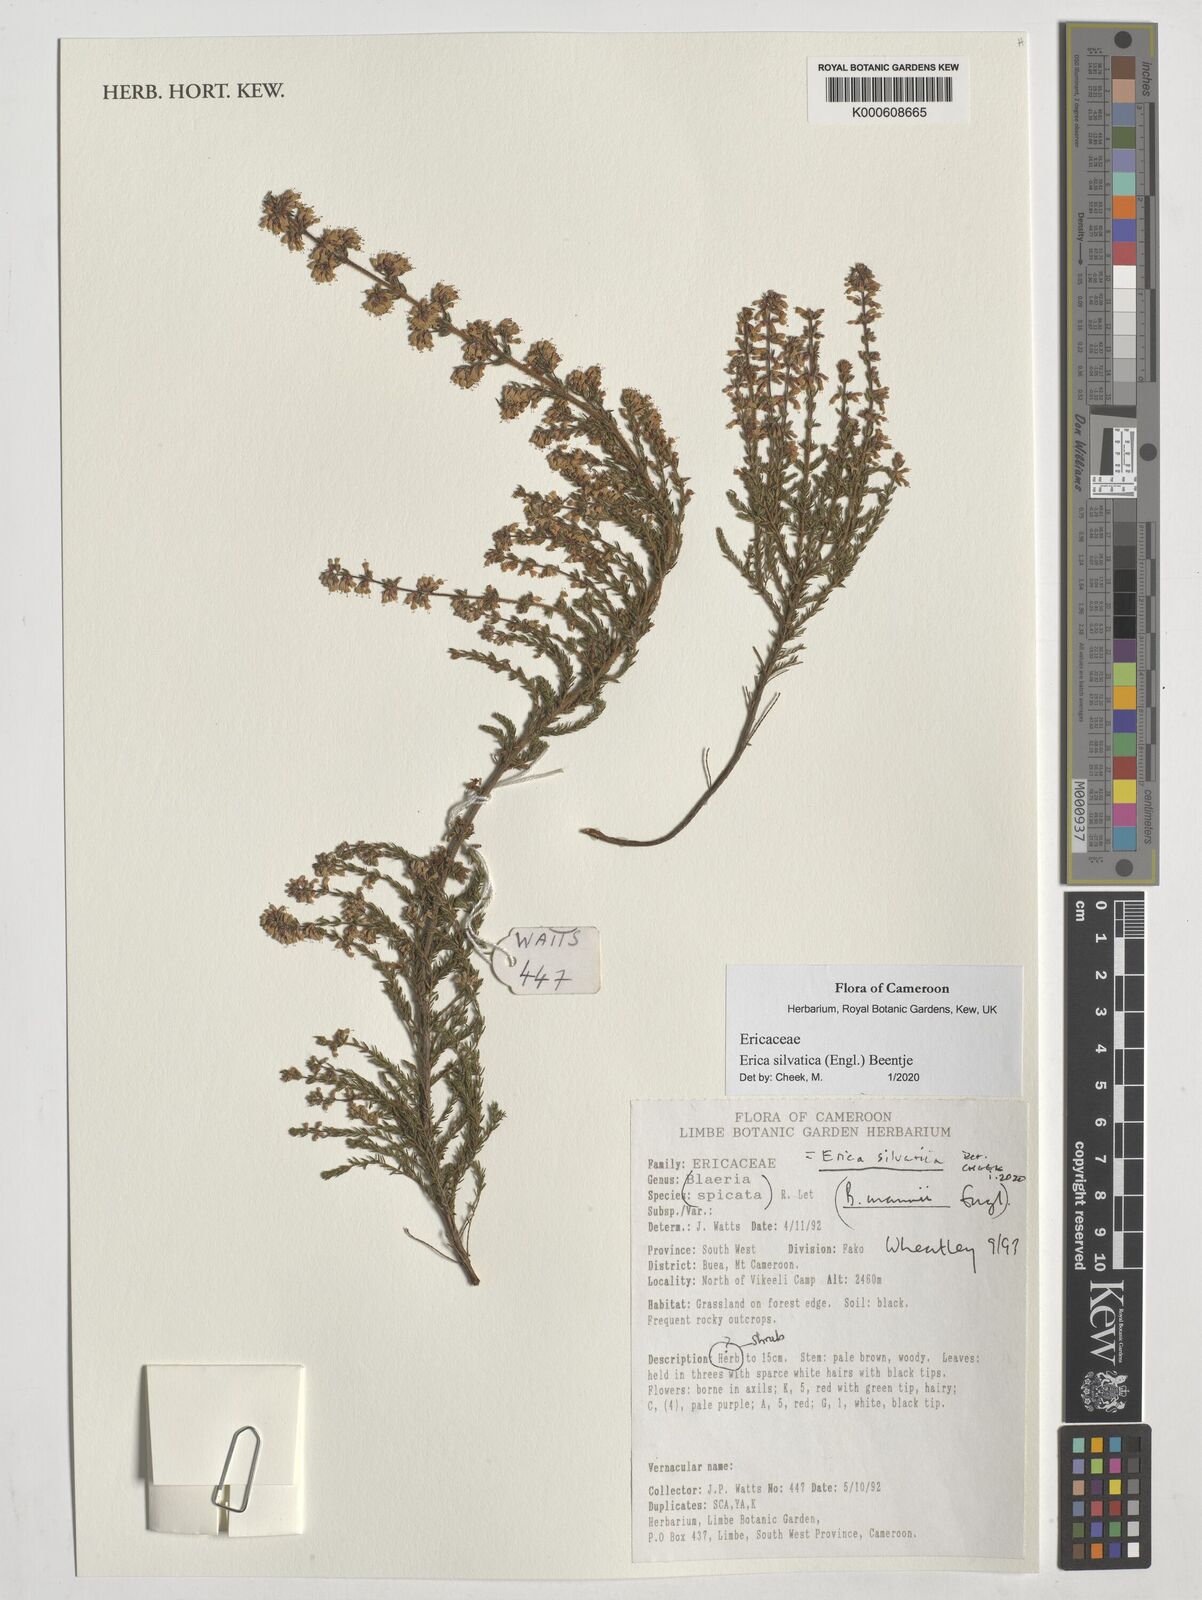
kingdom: Plantae
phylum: Tracheophyta
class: Magnoliopsida
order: Ericales
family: Ericaceae
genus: Erica
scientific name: Erica silvatica
